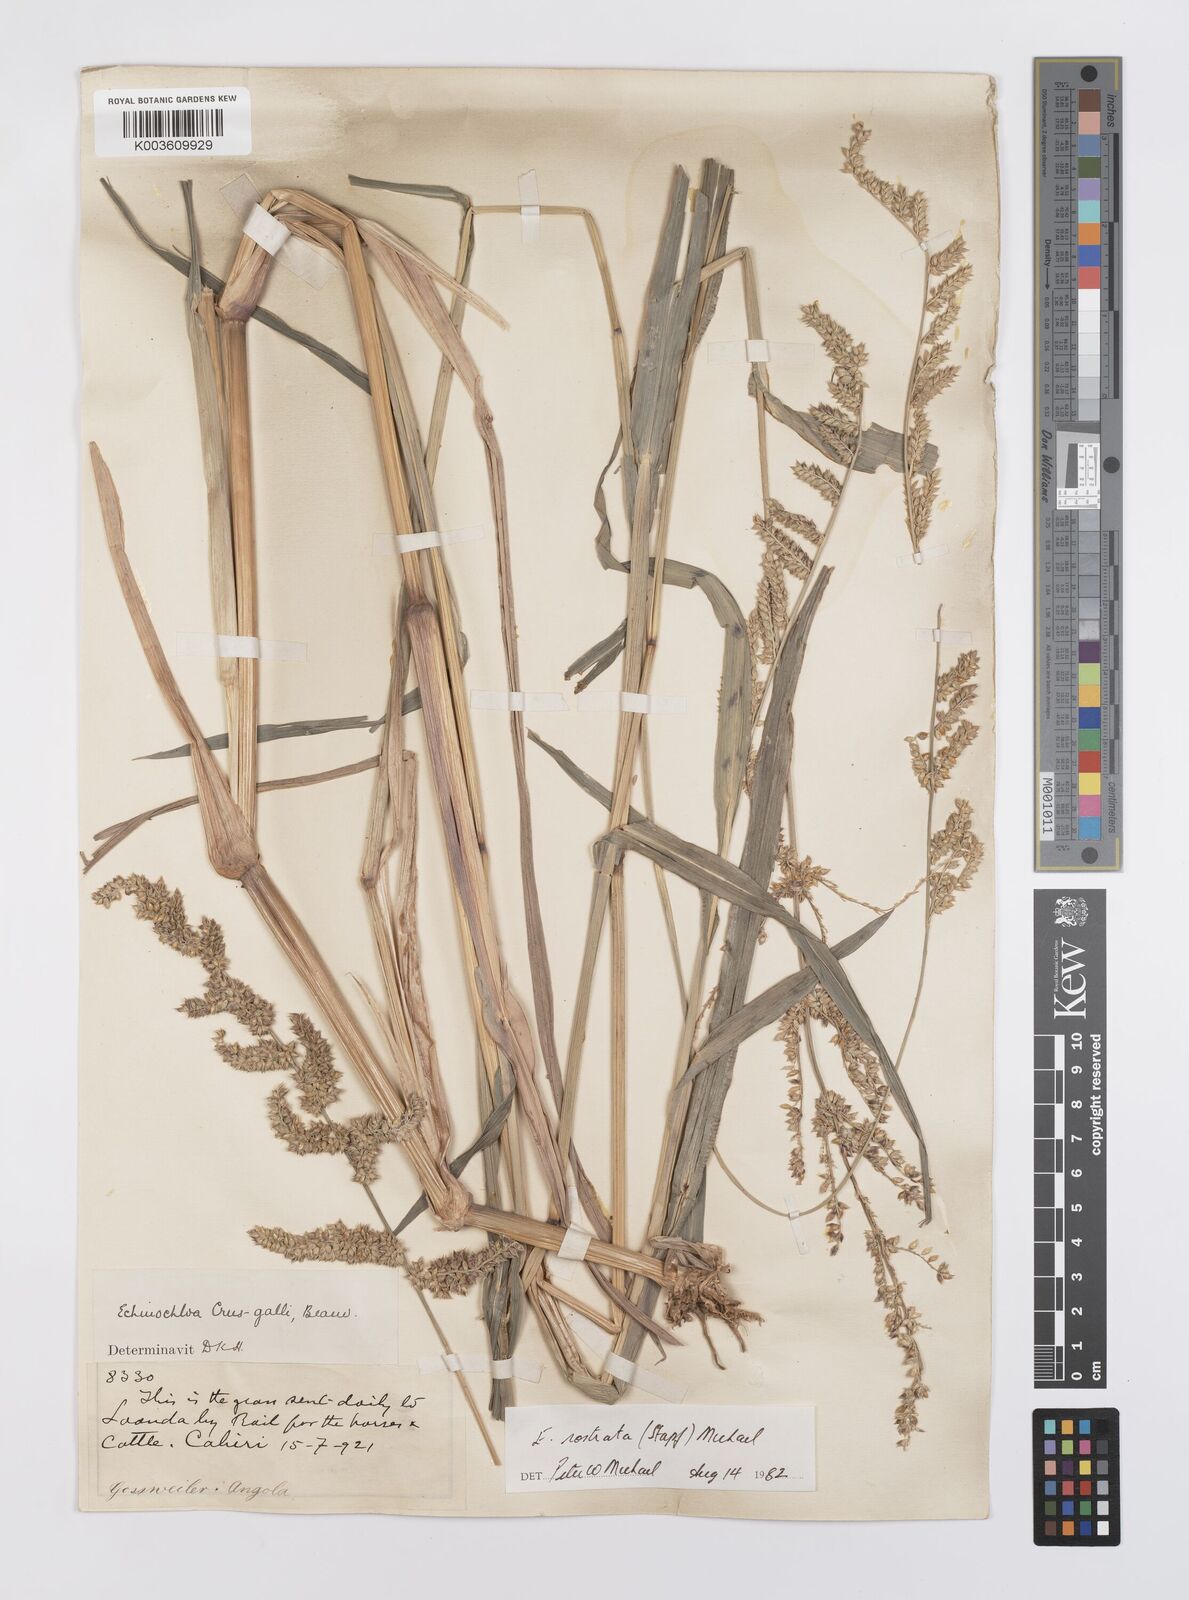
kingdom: Plantae
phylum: Tracheophyta
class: Liliopsida
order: Poales
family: Poaceae
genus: Echinochloa
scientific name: Echinochloa crus-pavonis
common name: Gulf cockspur grass
